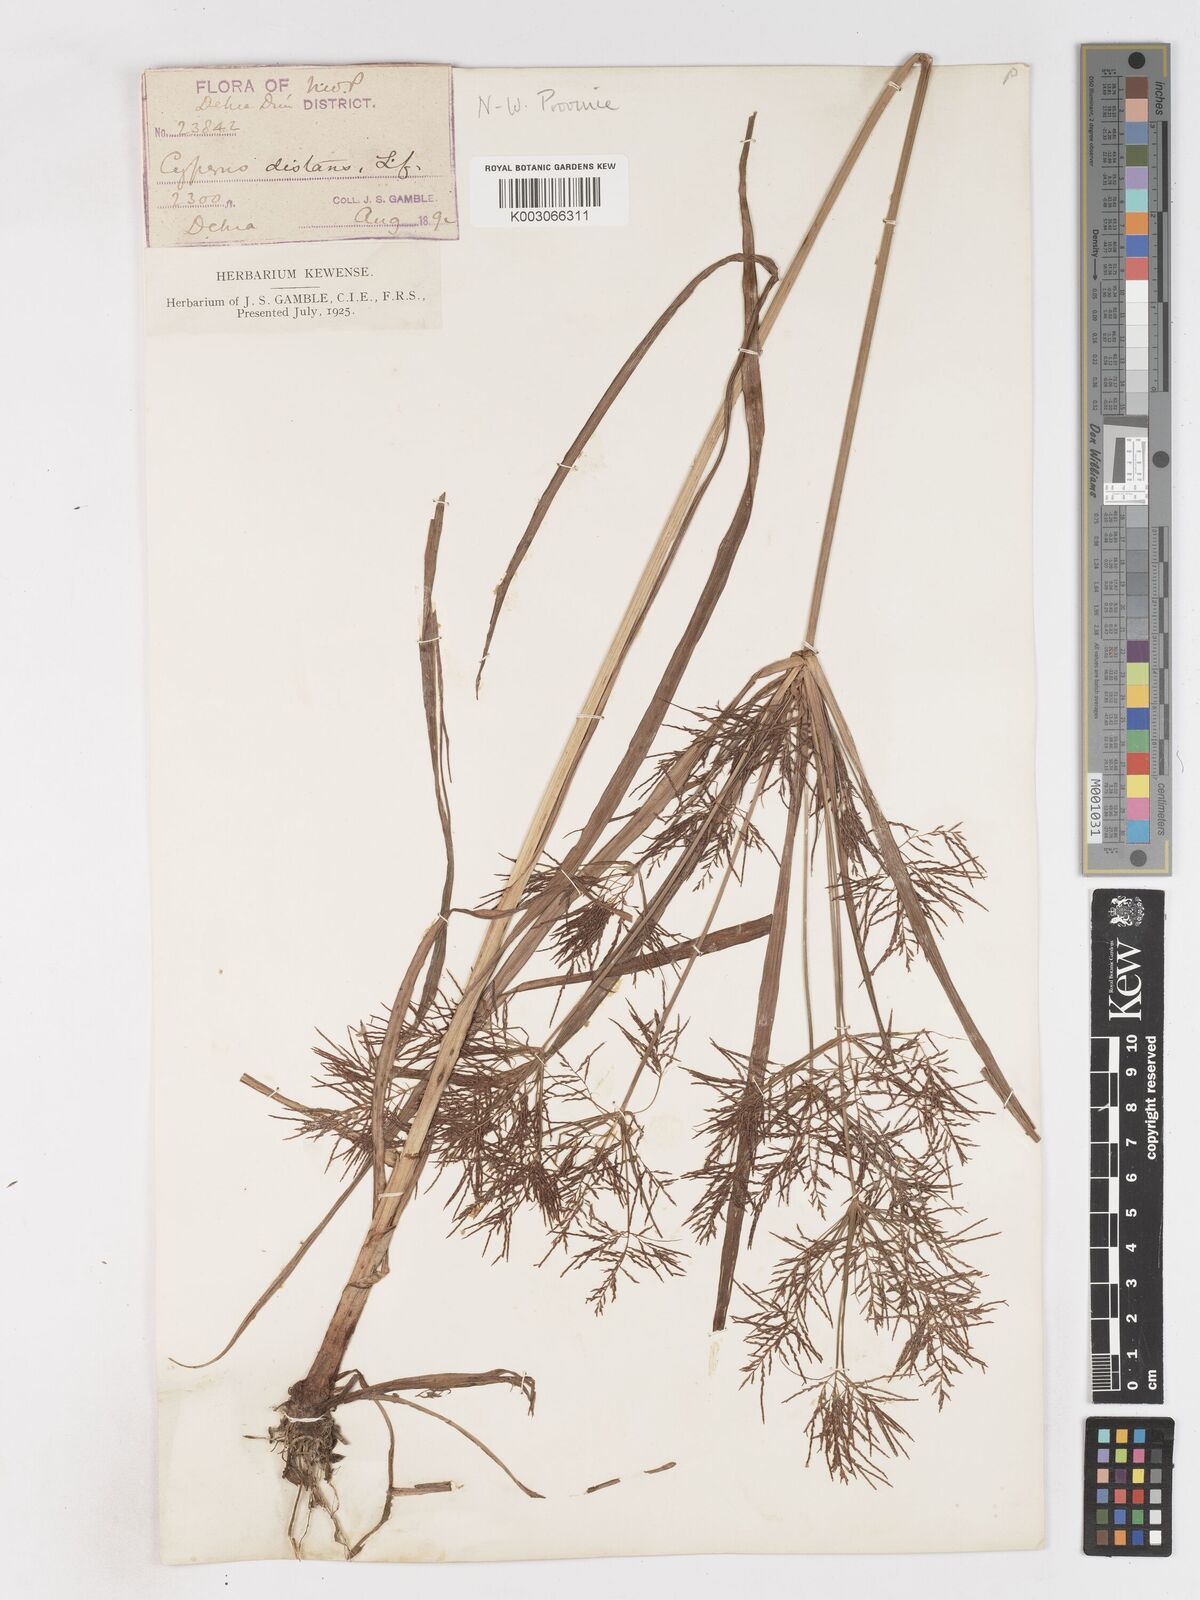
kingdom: Plantae
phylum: Tracheophyta
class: Liliopsida
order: Poales
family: Cyperaceae
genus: Cyperus
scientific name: Cyperus distans
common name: Slender cyperus
